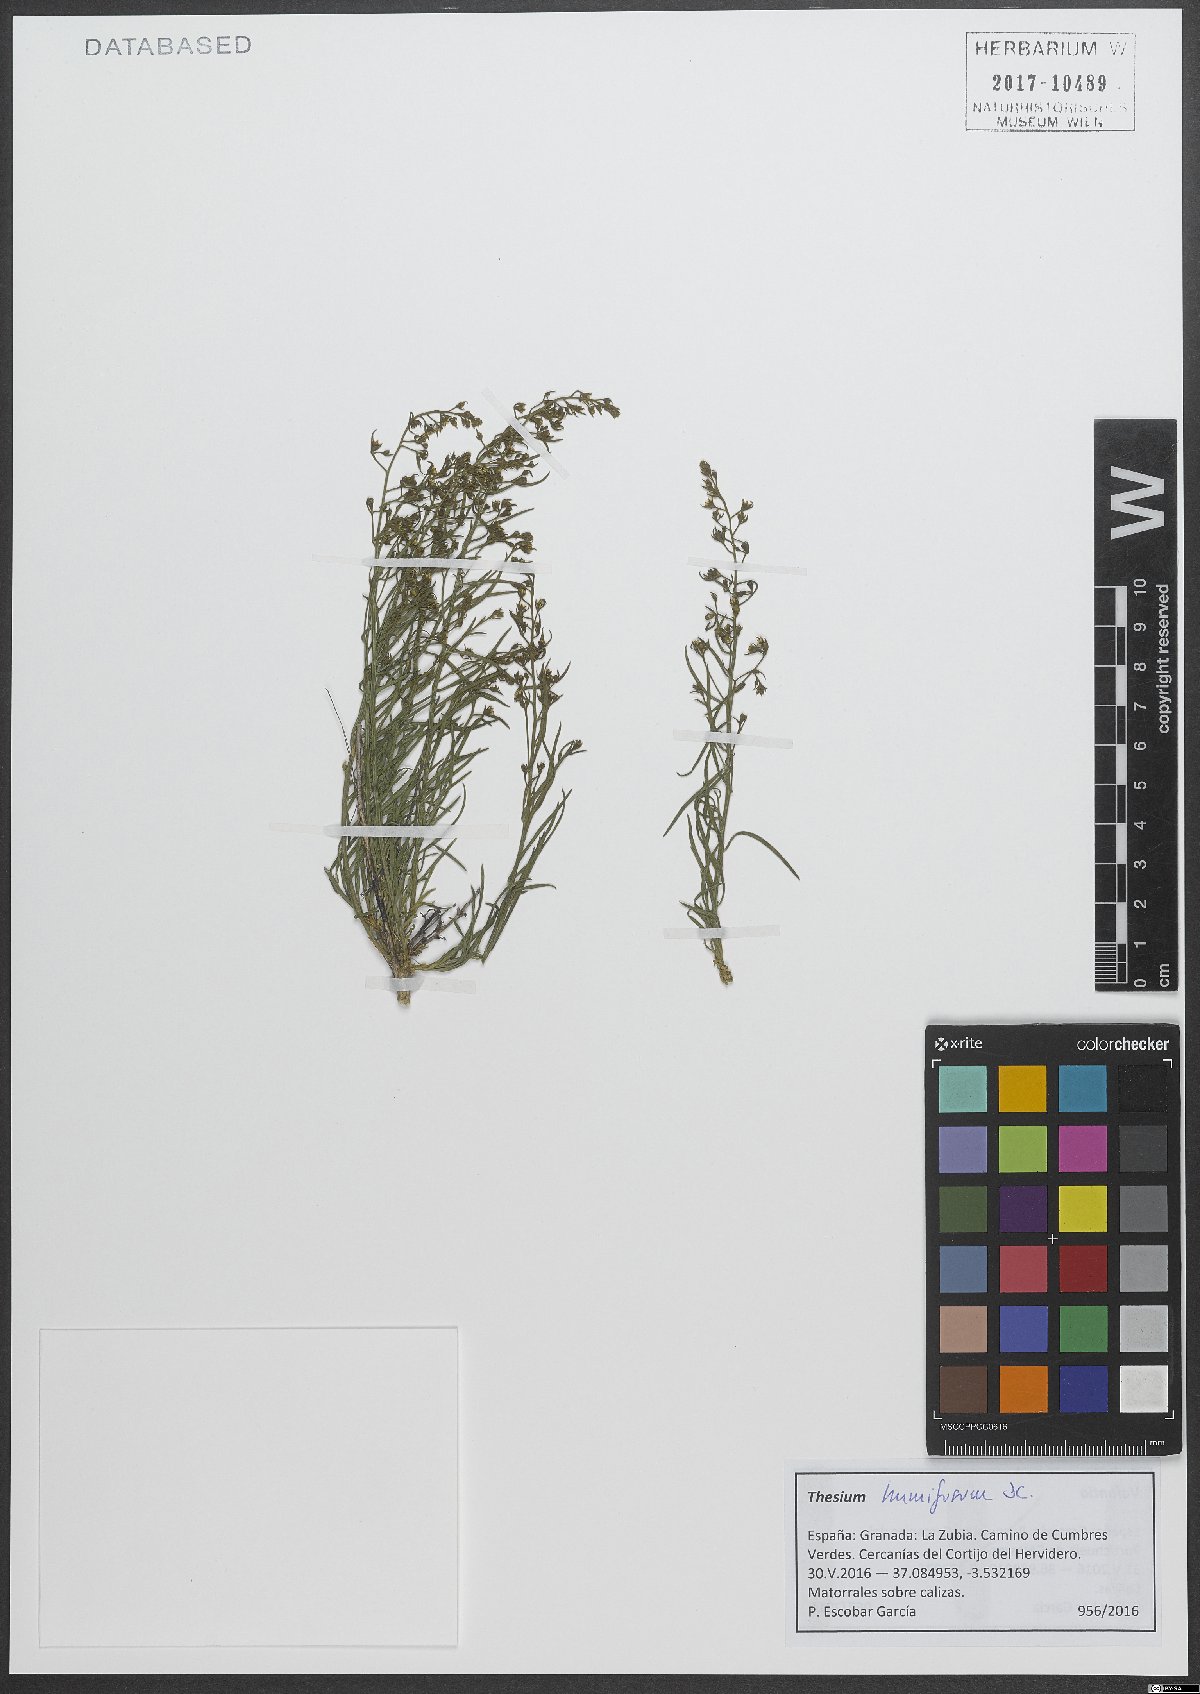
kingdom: Plantae
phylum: Tracheophyta
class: Magnoliopsida
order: Santalales
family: Thesiaceae
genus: Thesium
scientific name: Thesium humifusum
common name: Bastard-toadflax
